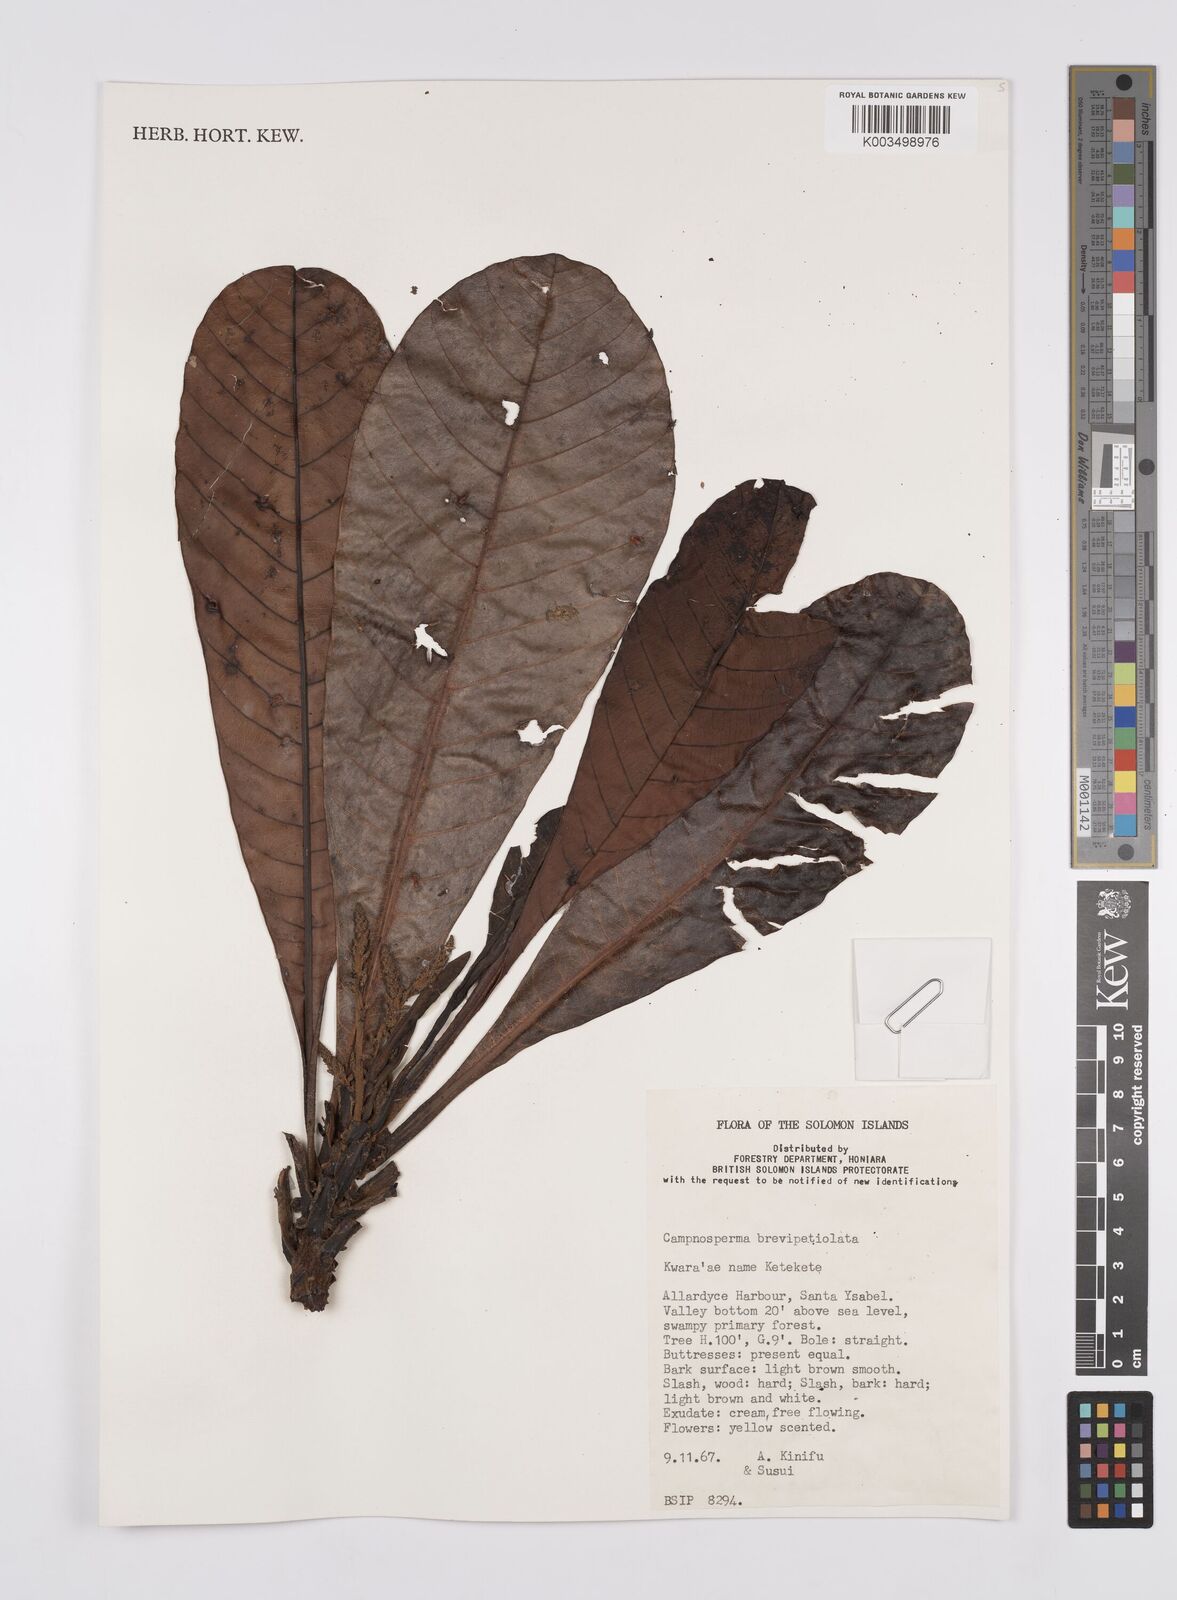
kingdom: Plantae
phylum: Tracheophyta
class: Magnoliopsida
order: Sapindales
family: Anacardiaceae
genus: Campnosperma
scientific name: Campnosperma brevipetiolatum
